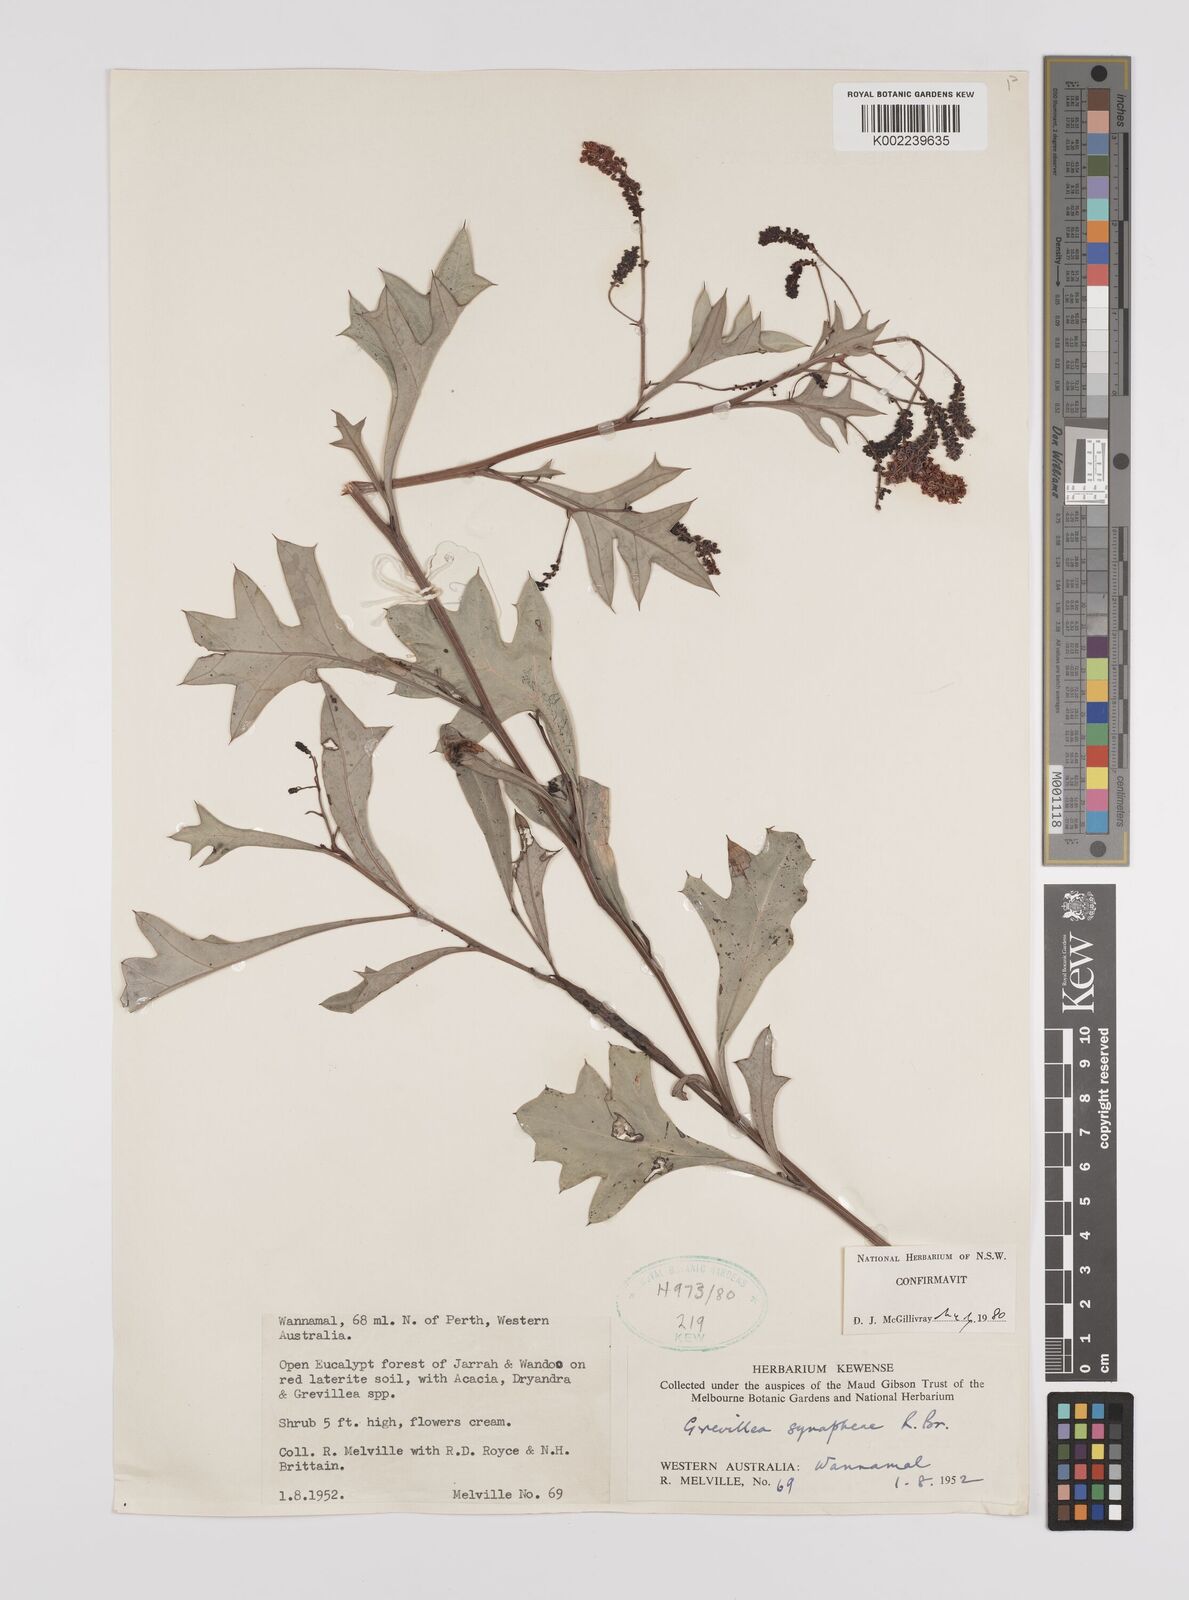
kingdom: Plantae
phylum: Tracheophyta
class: Magnoliopsida
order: Proteales
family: Proteaceae
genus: Grevillea
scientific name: Grevillea synaphea
